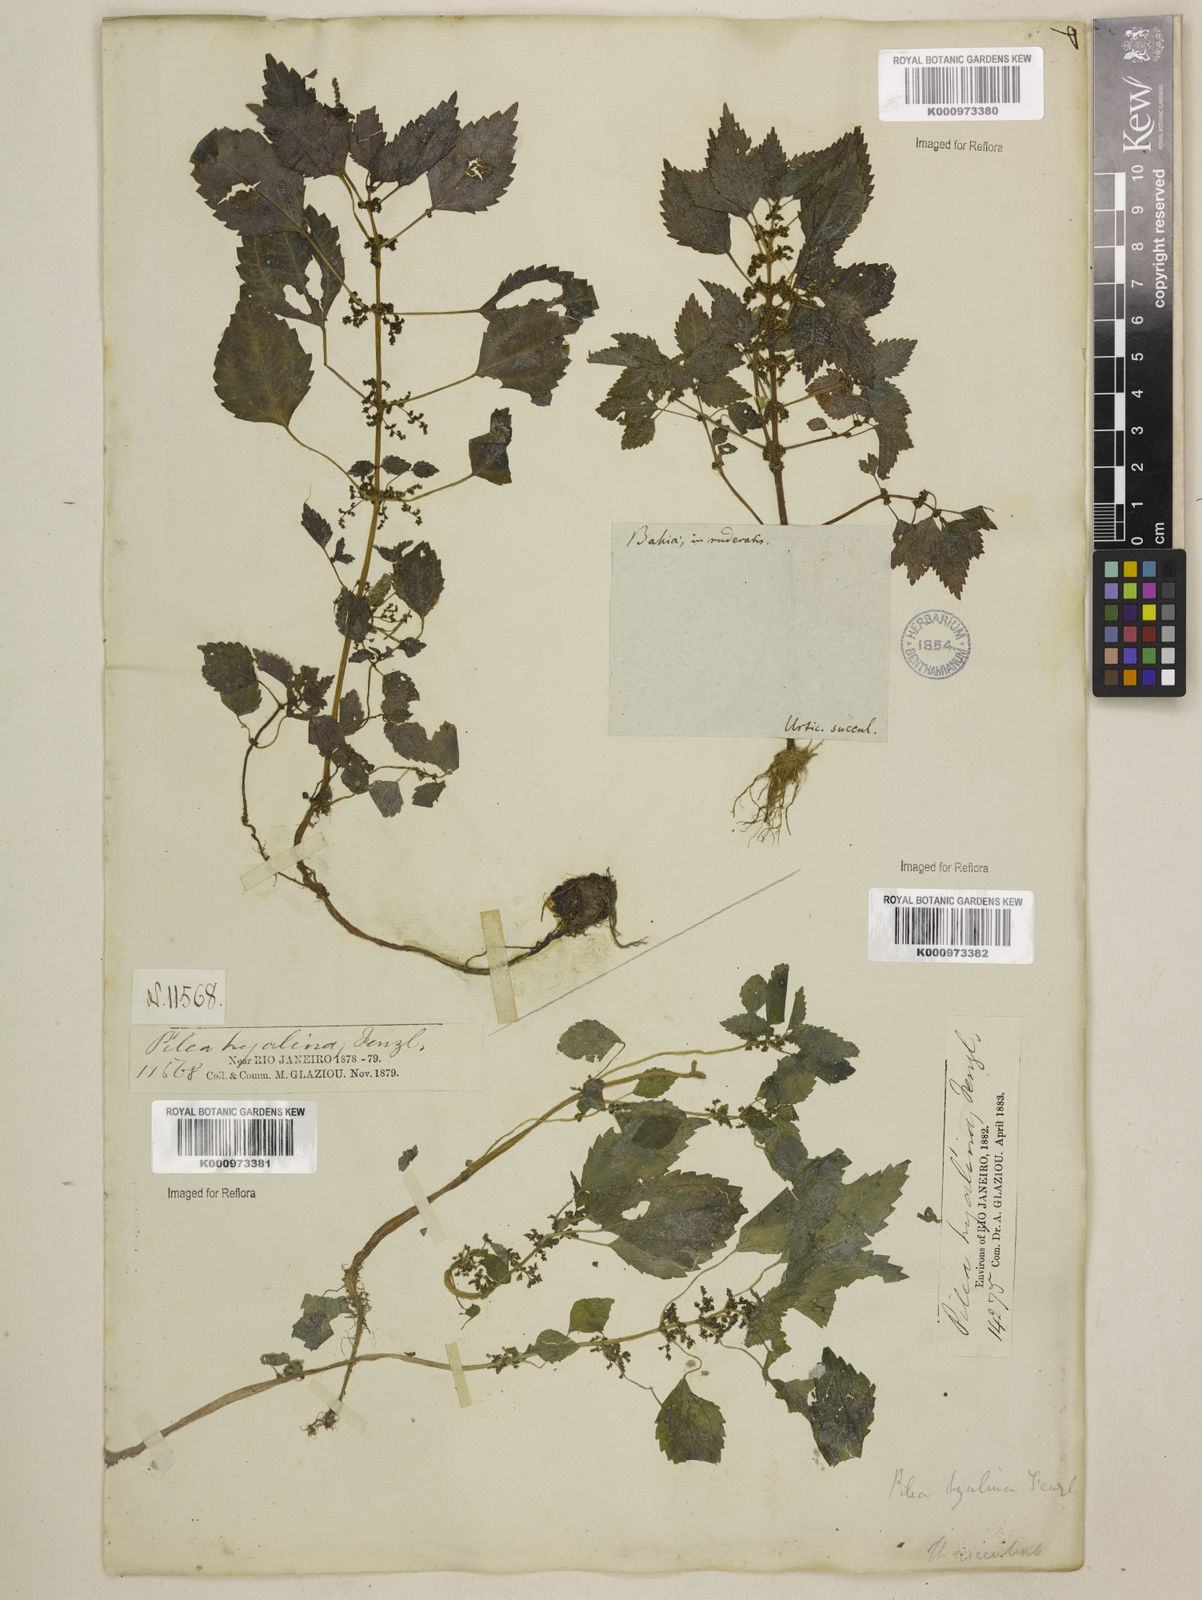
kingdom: Plantae
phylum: Tracheophyta
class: Magnoliopsida
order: Rosales
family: Urticaceae
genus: Pilea
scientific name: Pilea hyalina
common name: Virdrillo
